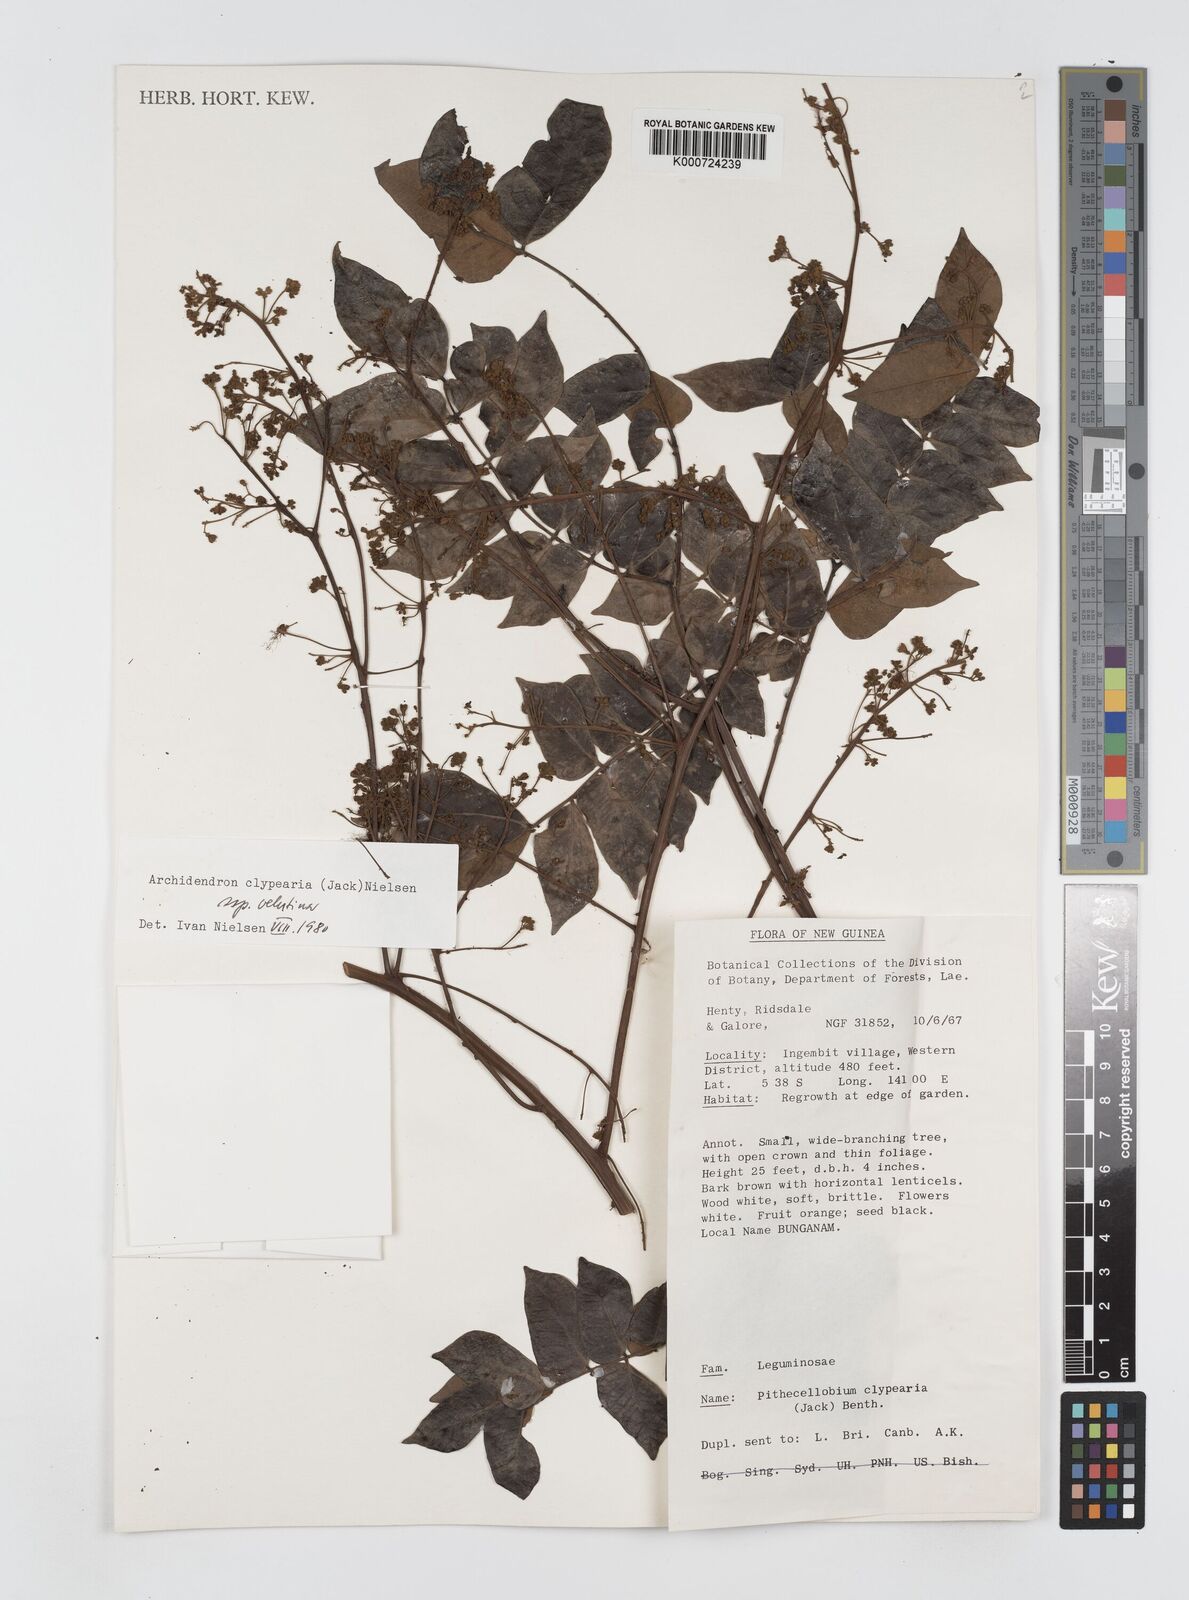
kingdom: Plantae
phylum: Tracheophyta
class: Magnoliopsida
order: Fabales
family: Fabaceae
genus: Archidendron
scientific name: Archidendron clypearia
